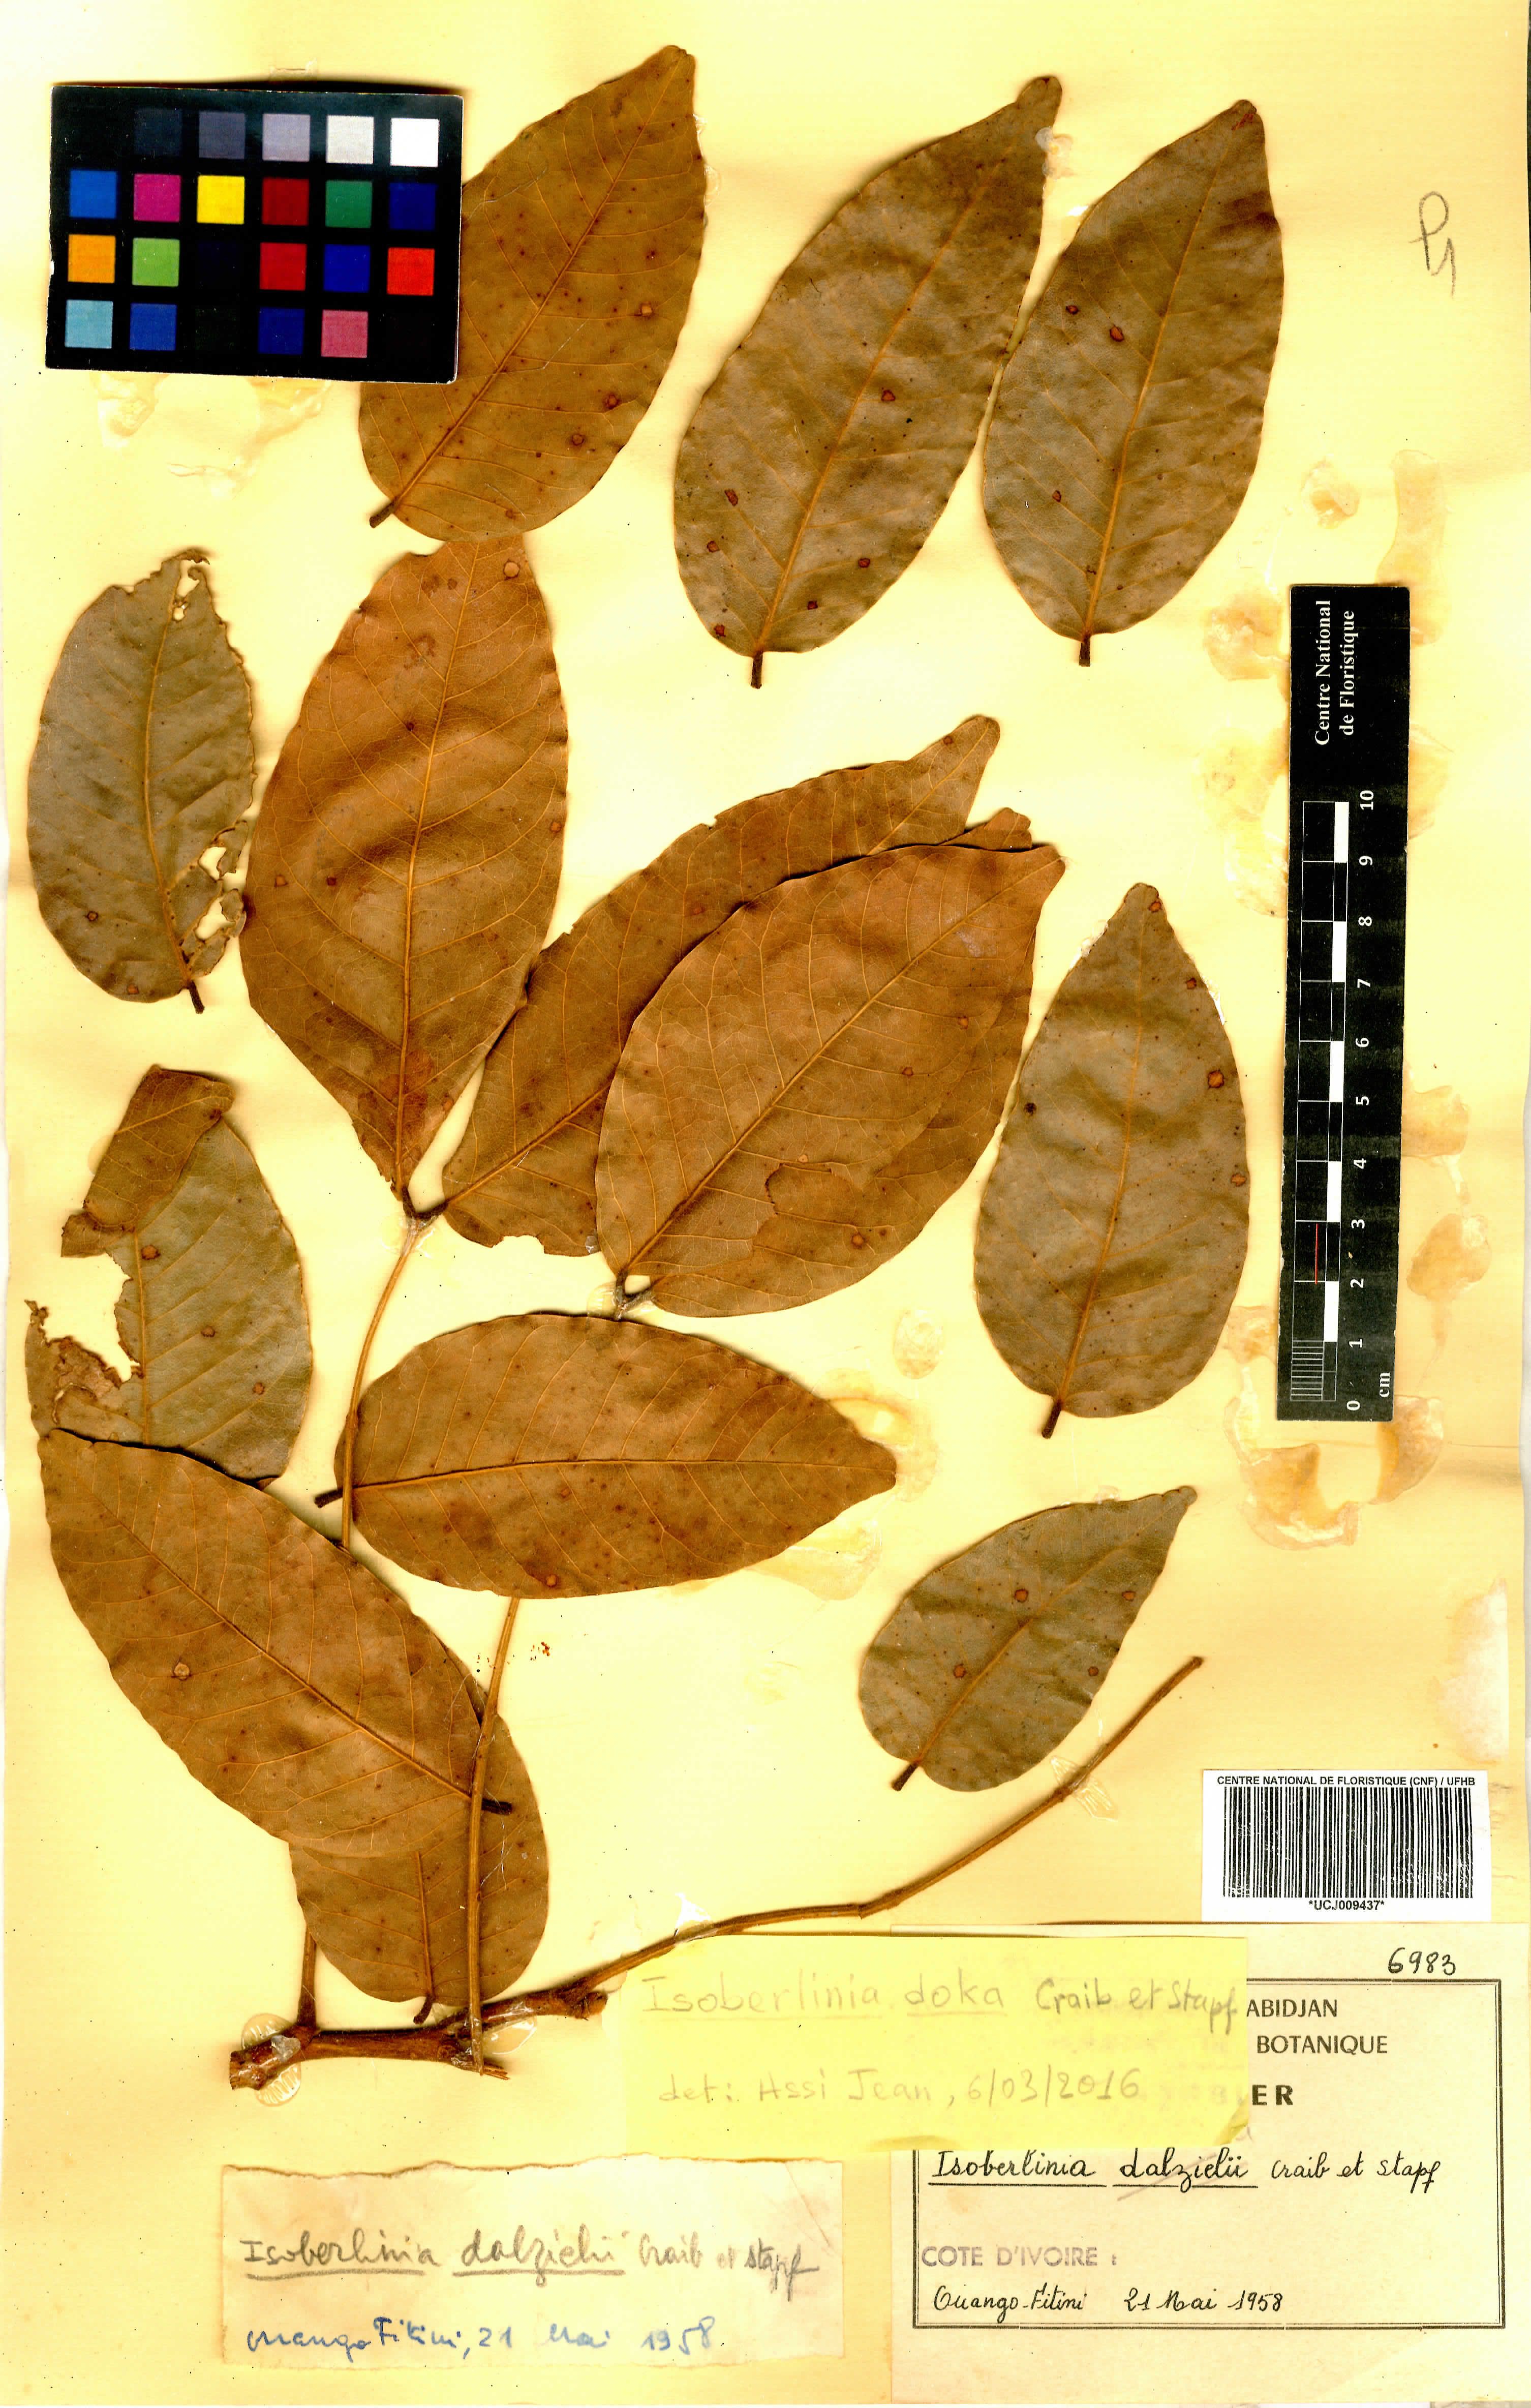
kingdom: Plantae
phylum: Tracheophyta
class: Magnoliopsida
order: Fabales
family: Fabaceae
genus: Isoberlinia
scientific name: Isoberlinia doka
